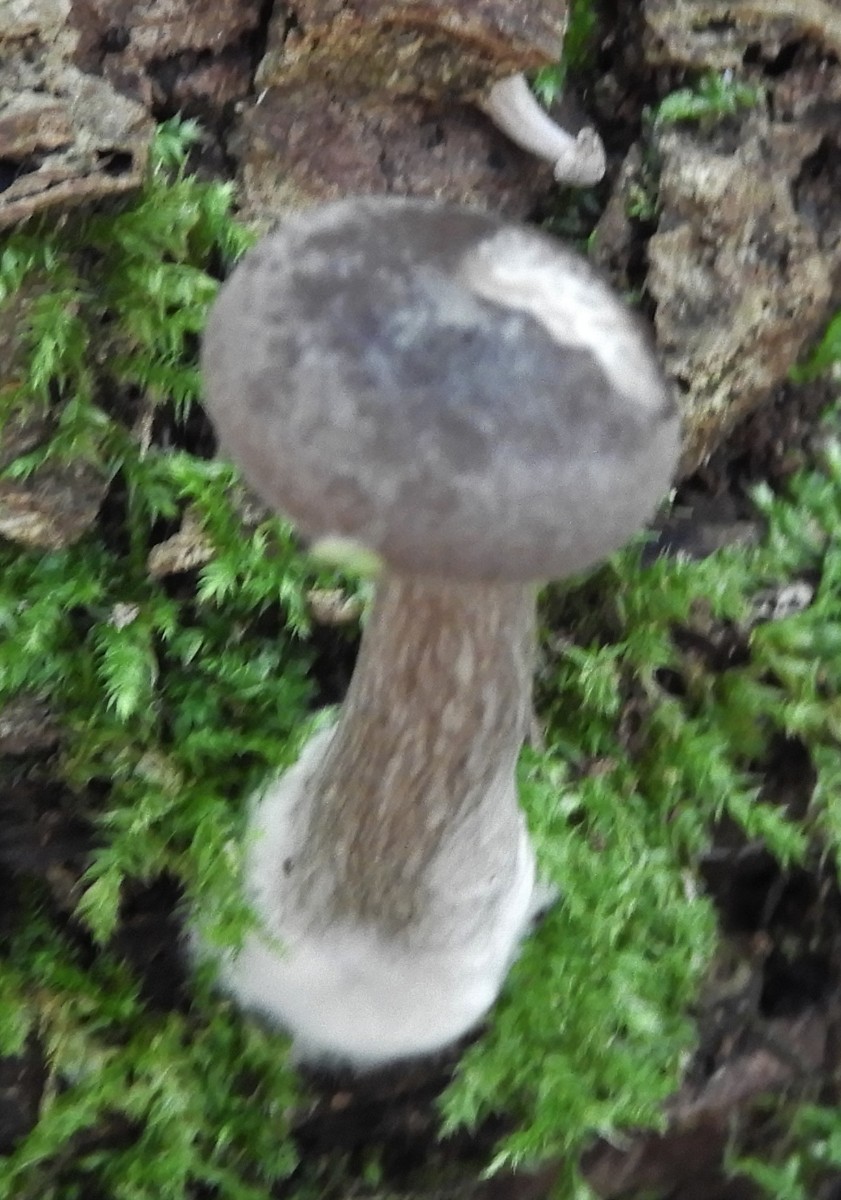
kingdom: Fungi
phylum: Basidiomycota
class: Agaricomycetes
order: Agaricales
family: Pseudoclitocybaceae
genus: Pseudoclitocybe
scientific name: Pseudoclitocybe cyathiformis
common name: almindelig bægertragthat
